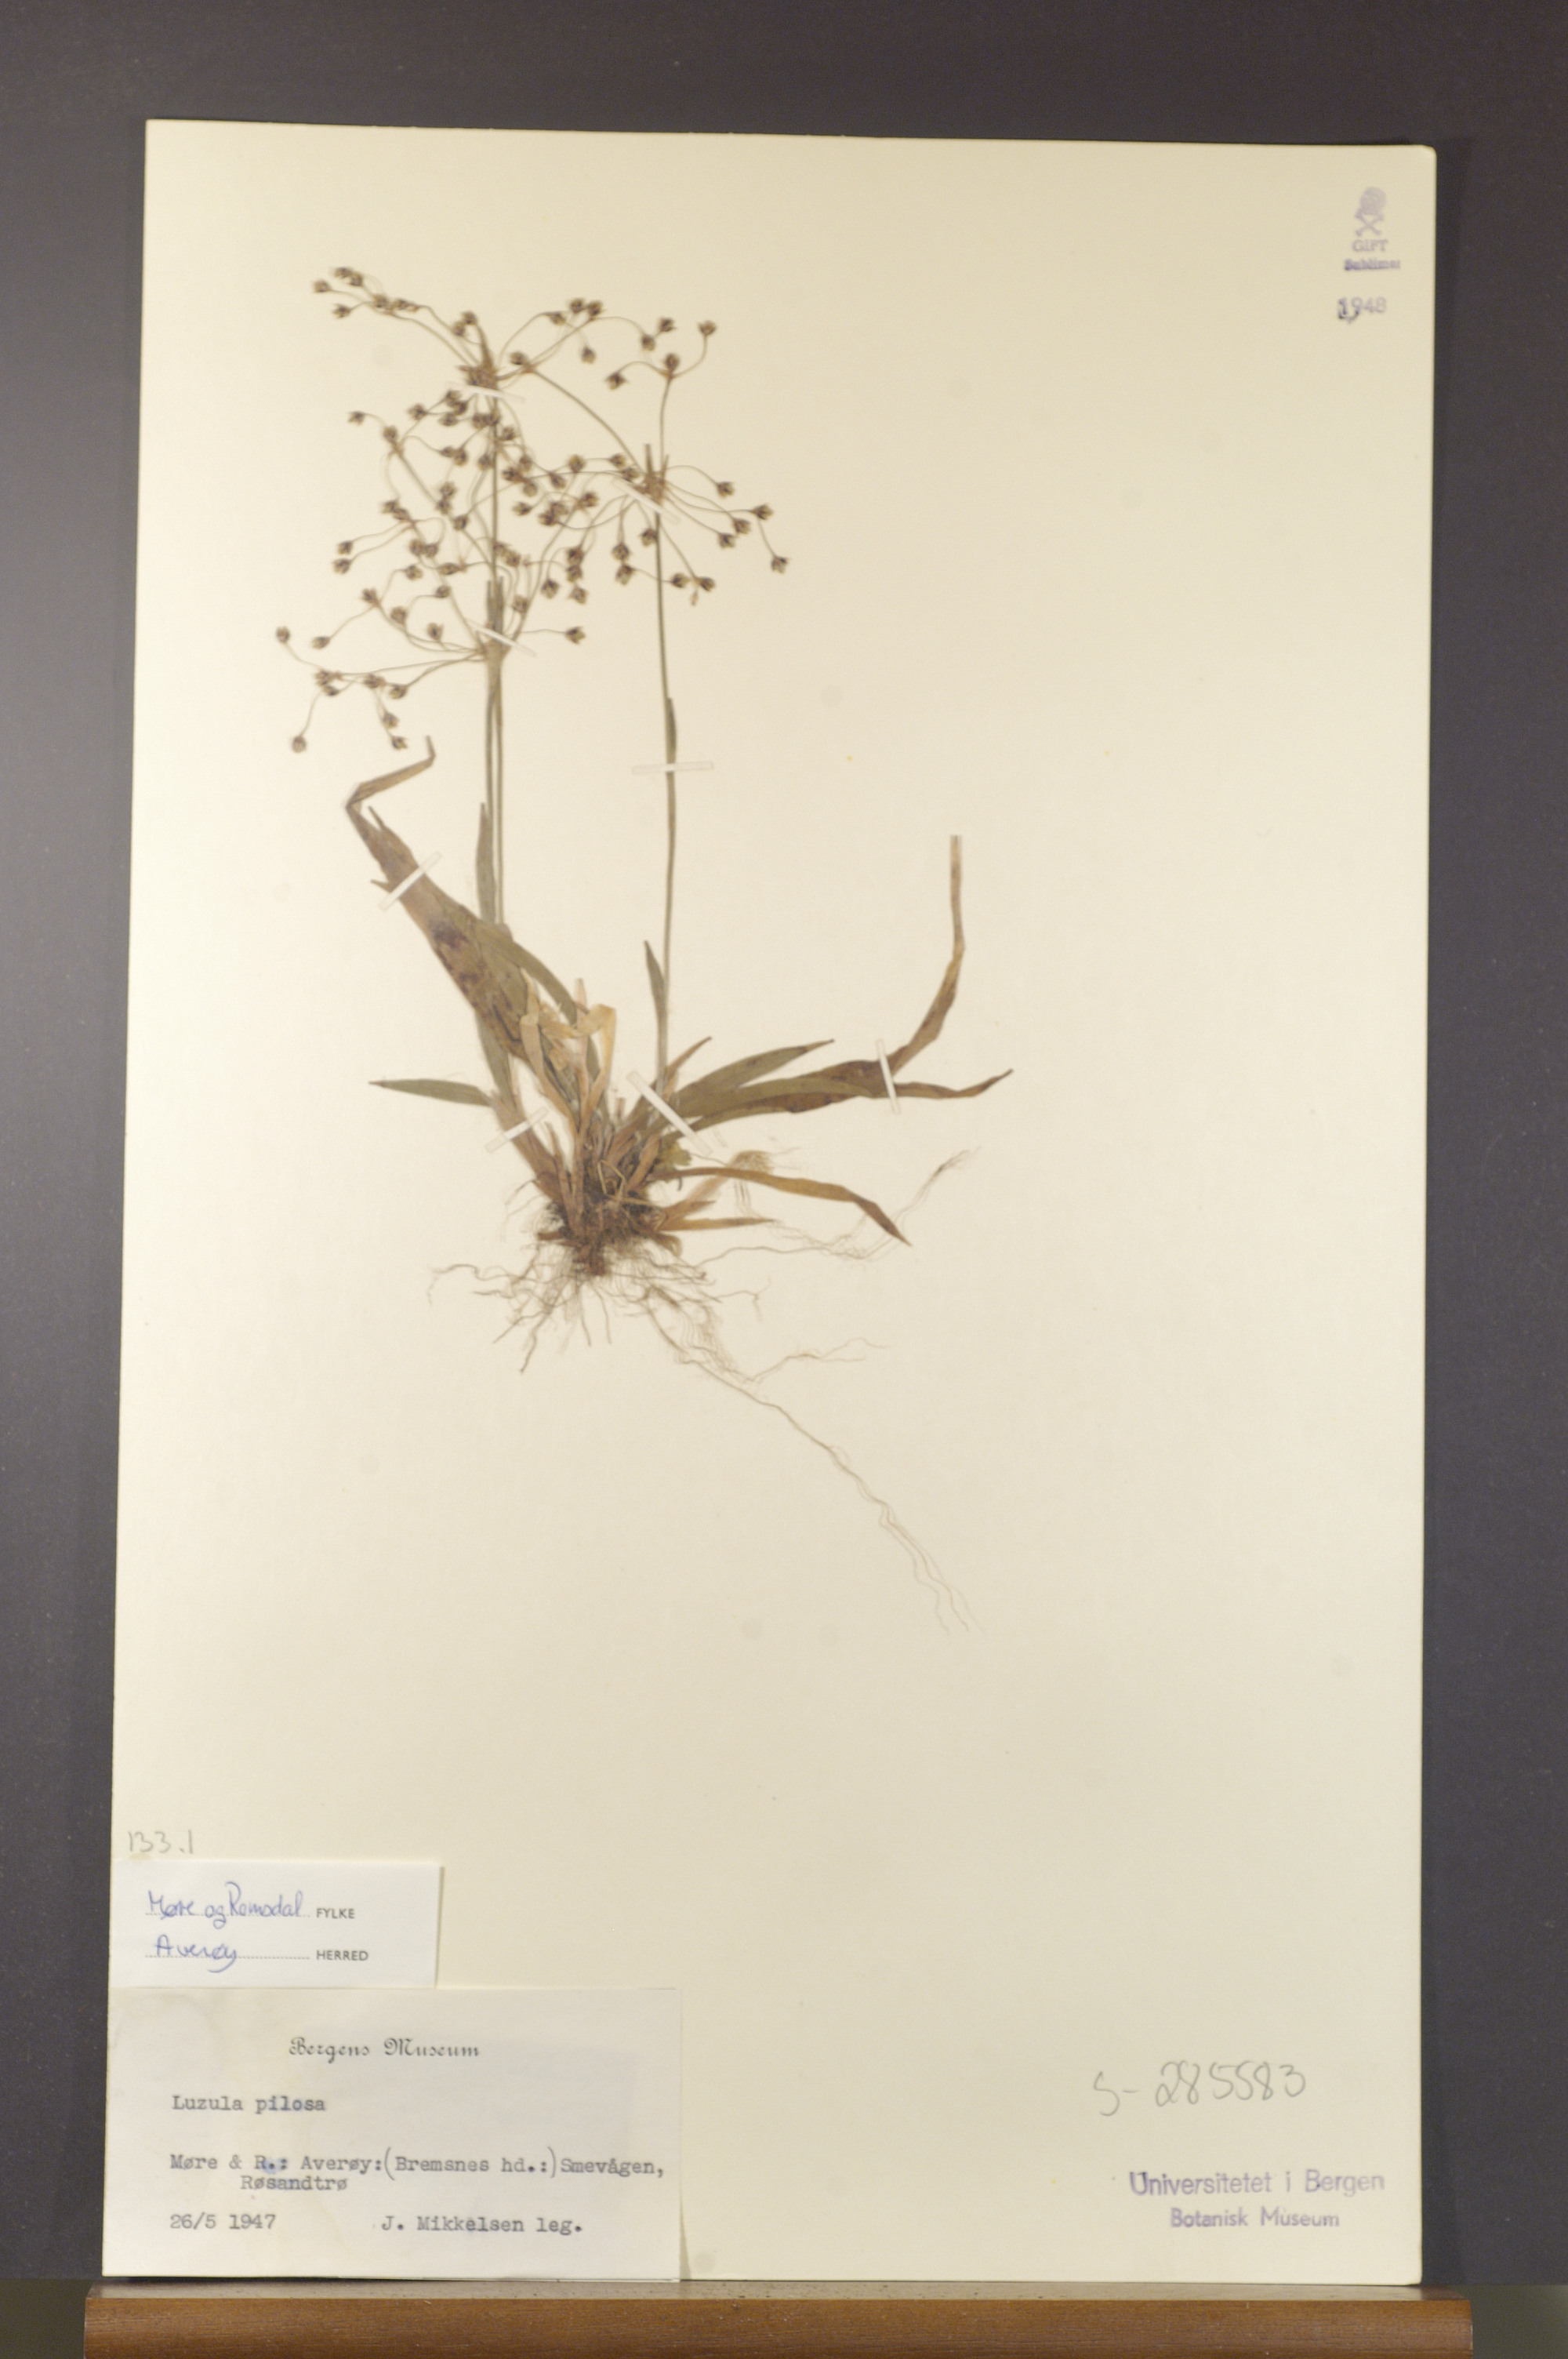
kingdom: Plantae
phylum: Tracheophyta
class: Liliopsida
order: Poales
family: Juncaceae
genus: Luzula
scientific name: Luzula pilosa
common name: Hairy wood-rush
